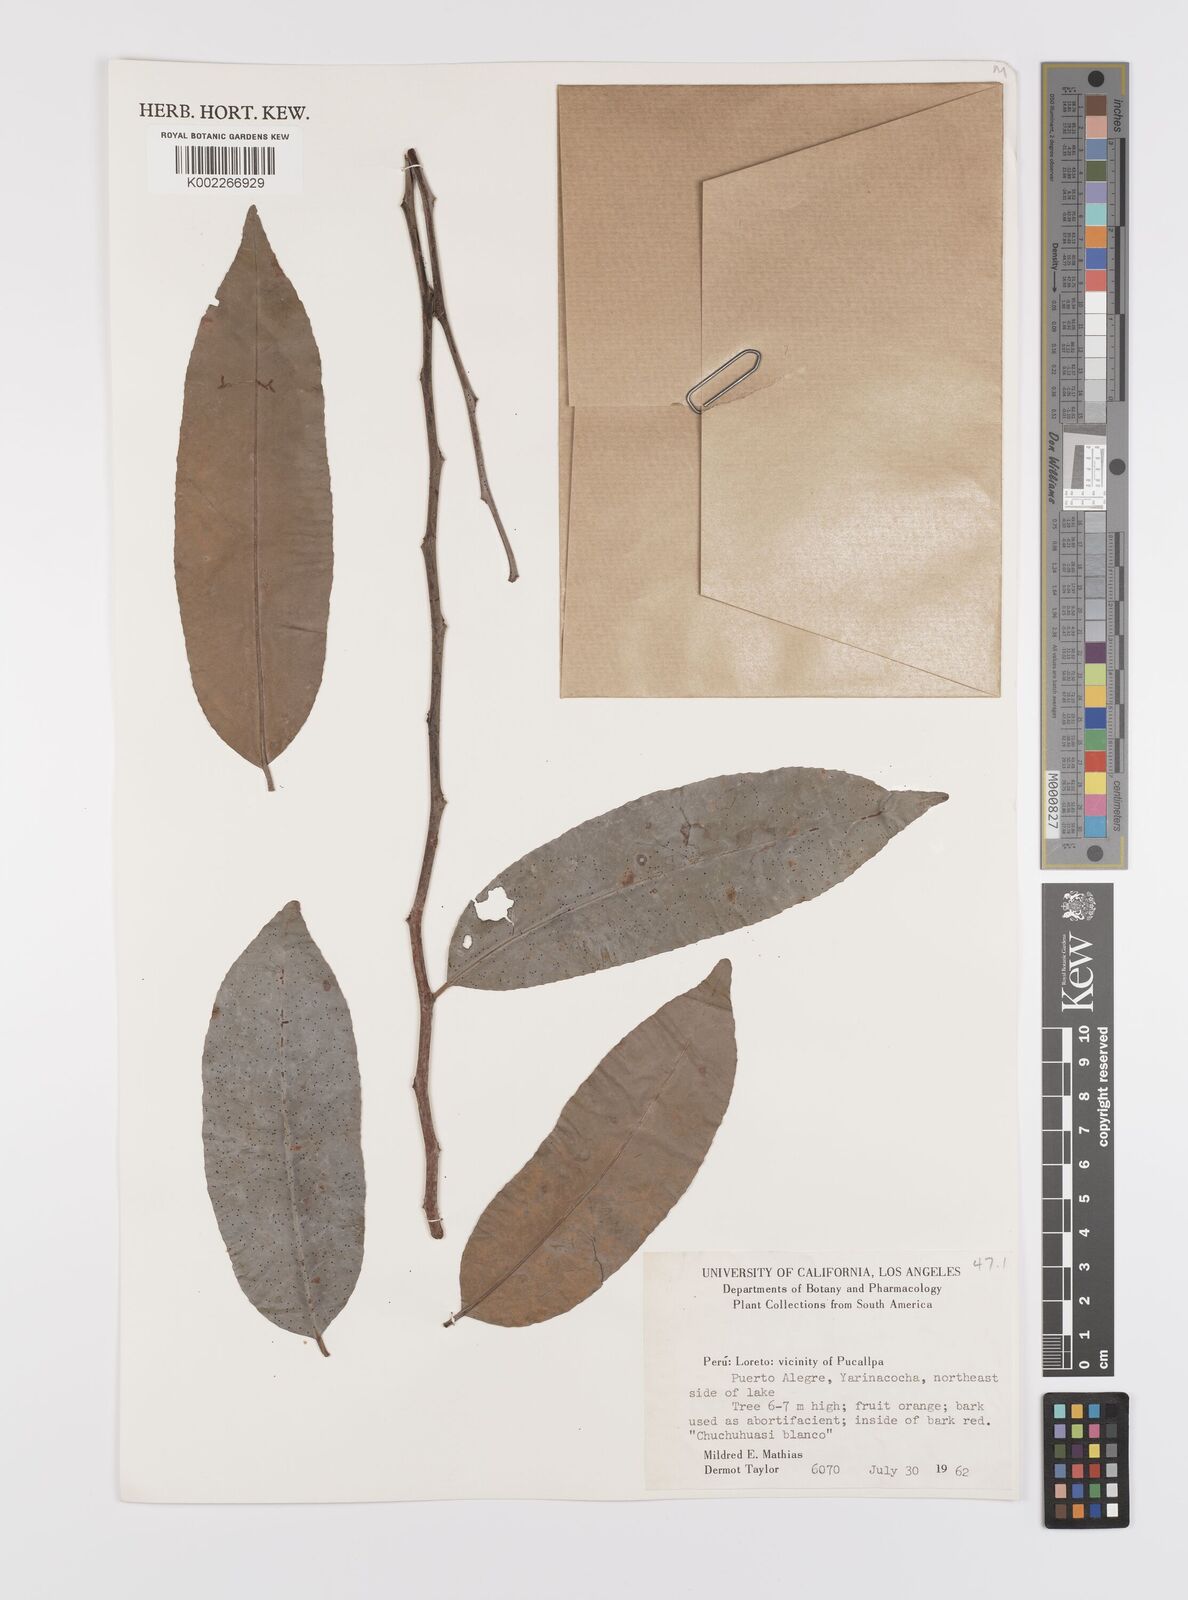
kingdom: Plantae
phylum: Tracheophyta
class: Magnoliopsida
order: Celastrales
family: Celastraceae
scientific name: Celastraceae
